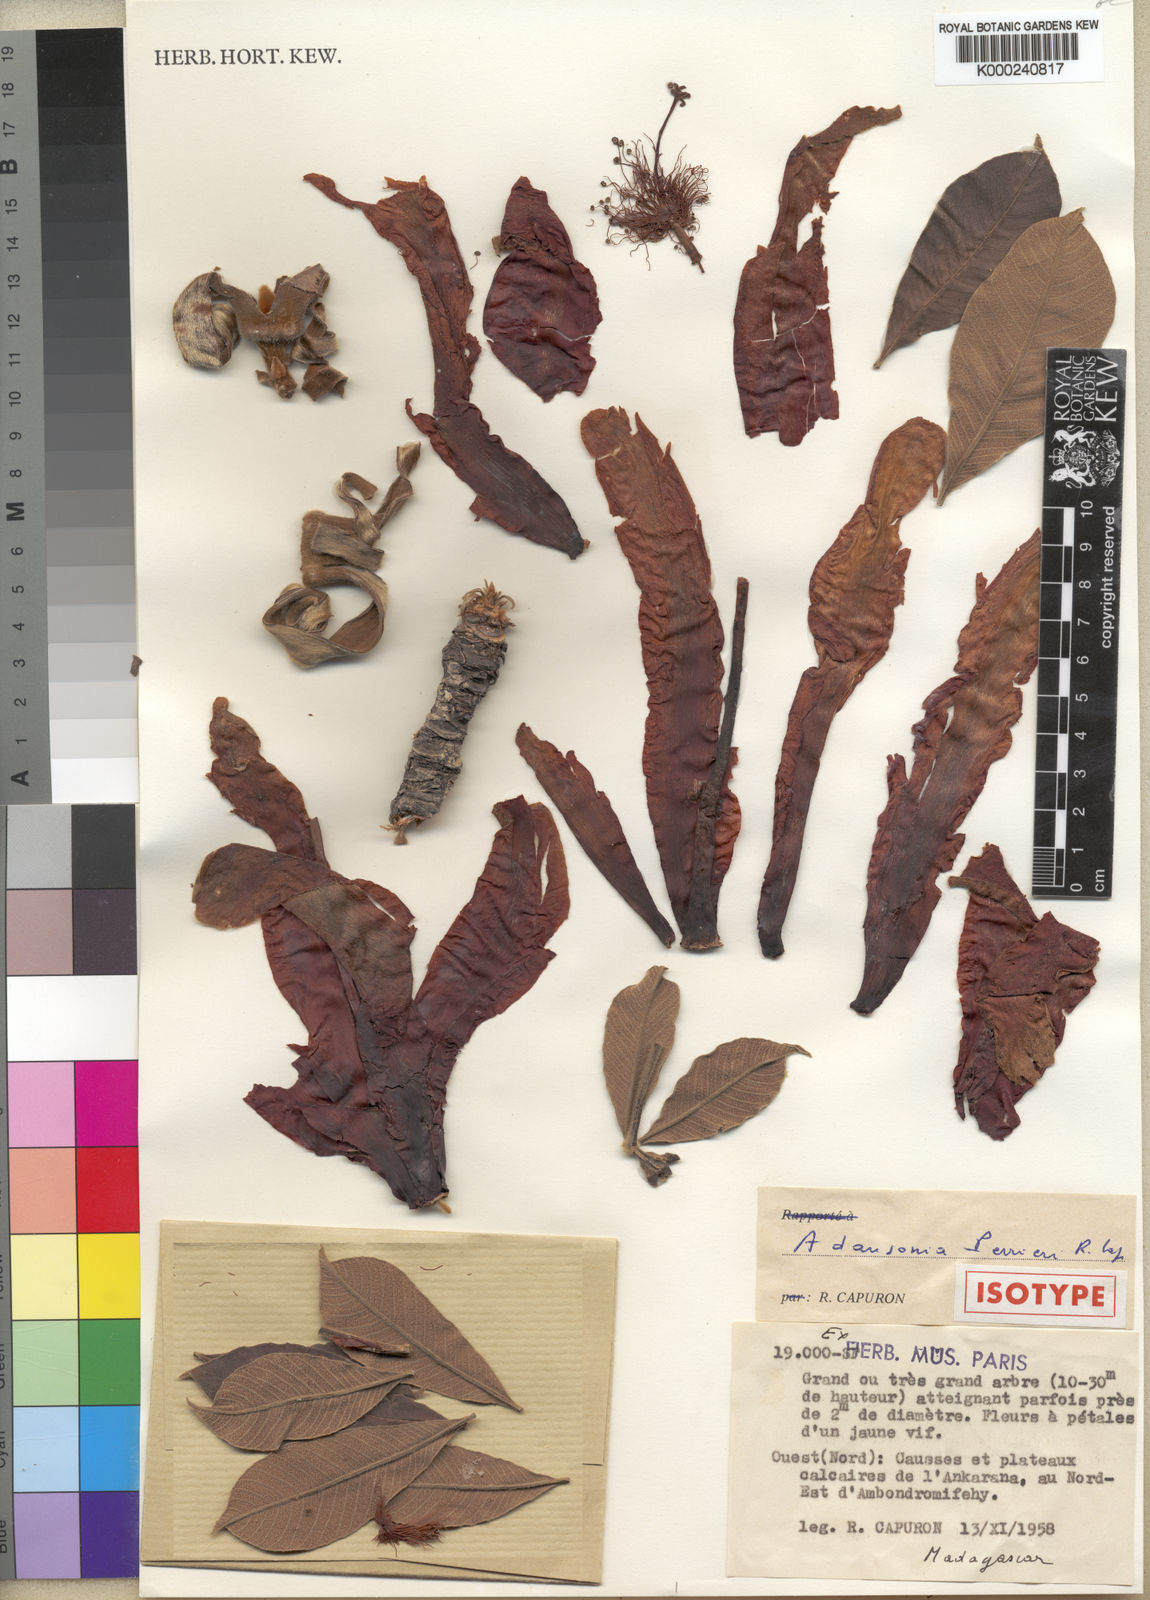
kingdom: Plantae
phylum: Tracheophyta
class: Magnoliopsida
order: Malvales
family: Malvaceae
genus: Adansonia
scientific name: Adansonia perrieri
